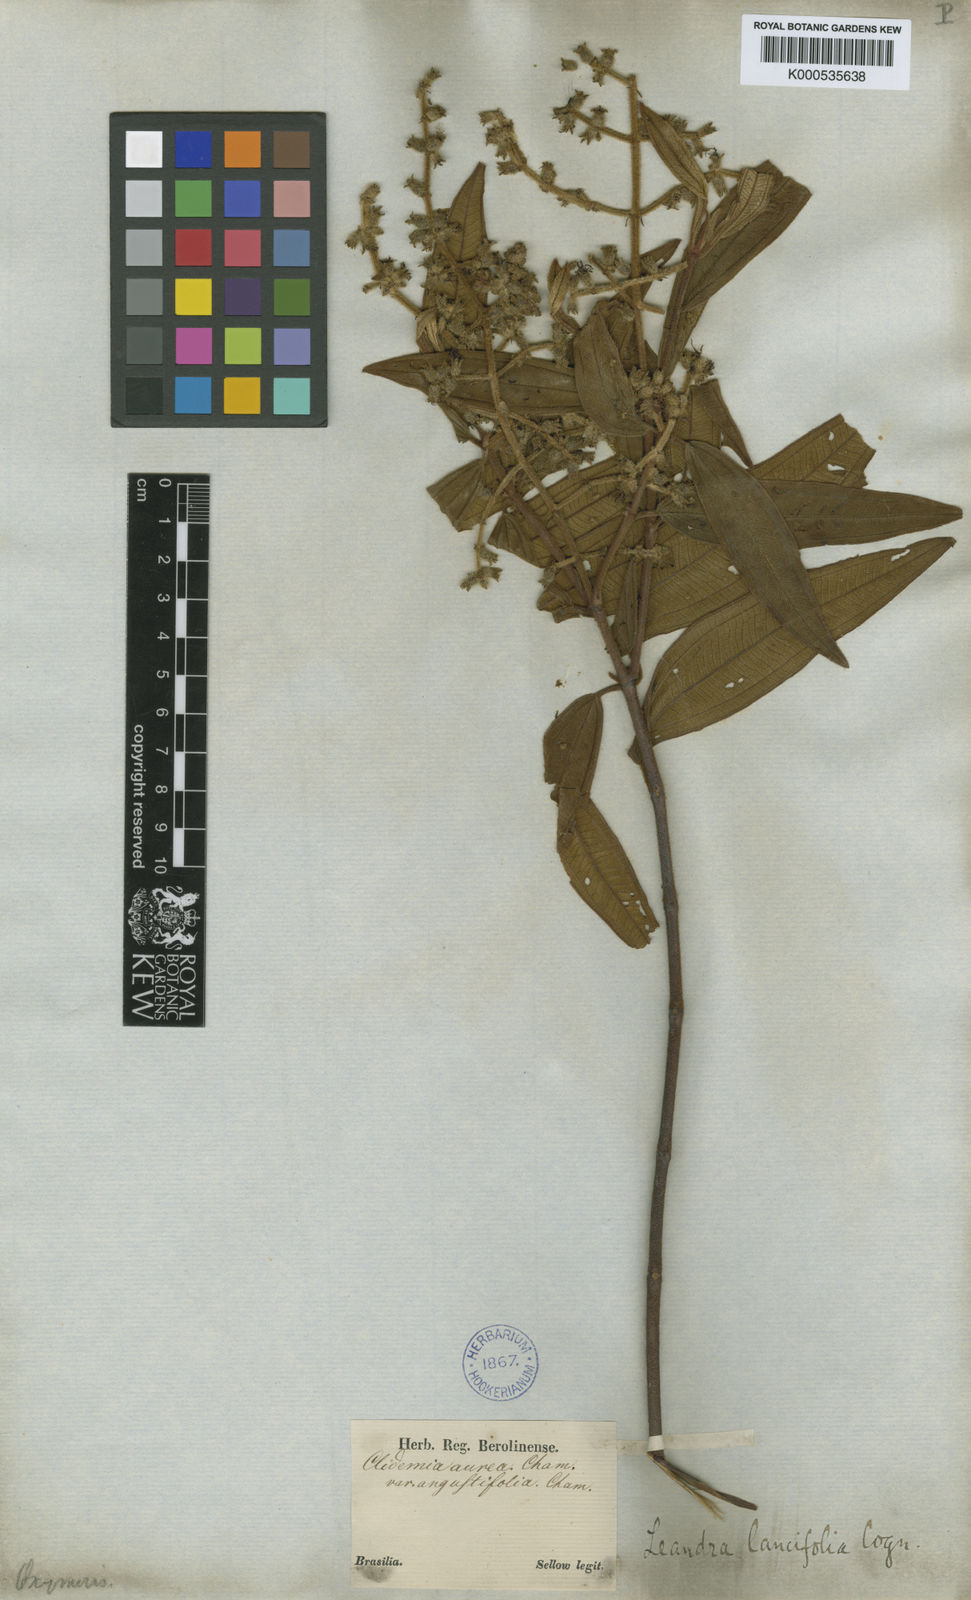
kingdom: Plantae
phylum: Tracheophyta
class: Magnoliopsida
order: Myrtales
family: Melastomataceae
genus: Miconia
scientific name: Miconia lealancifolia
